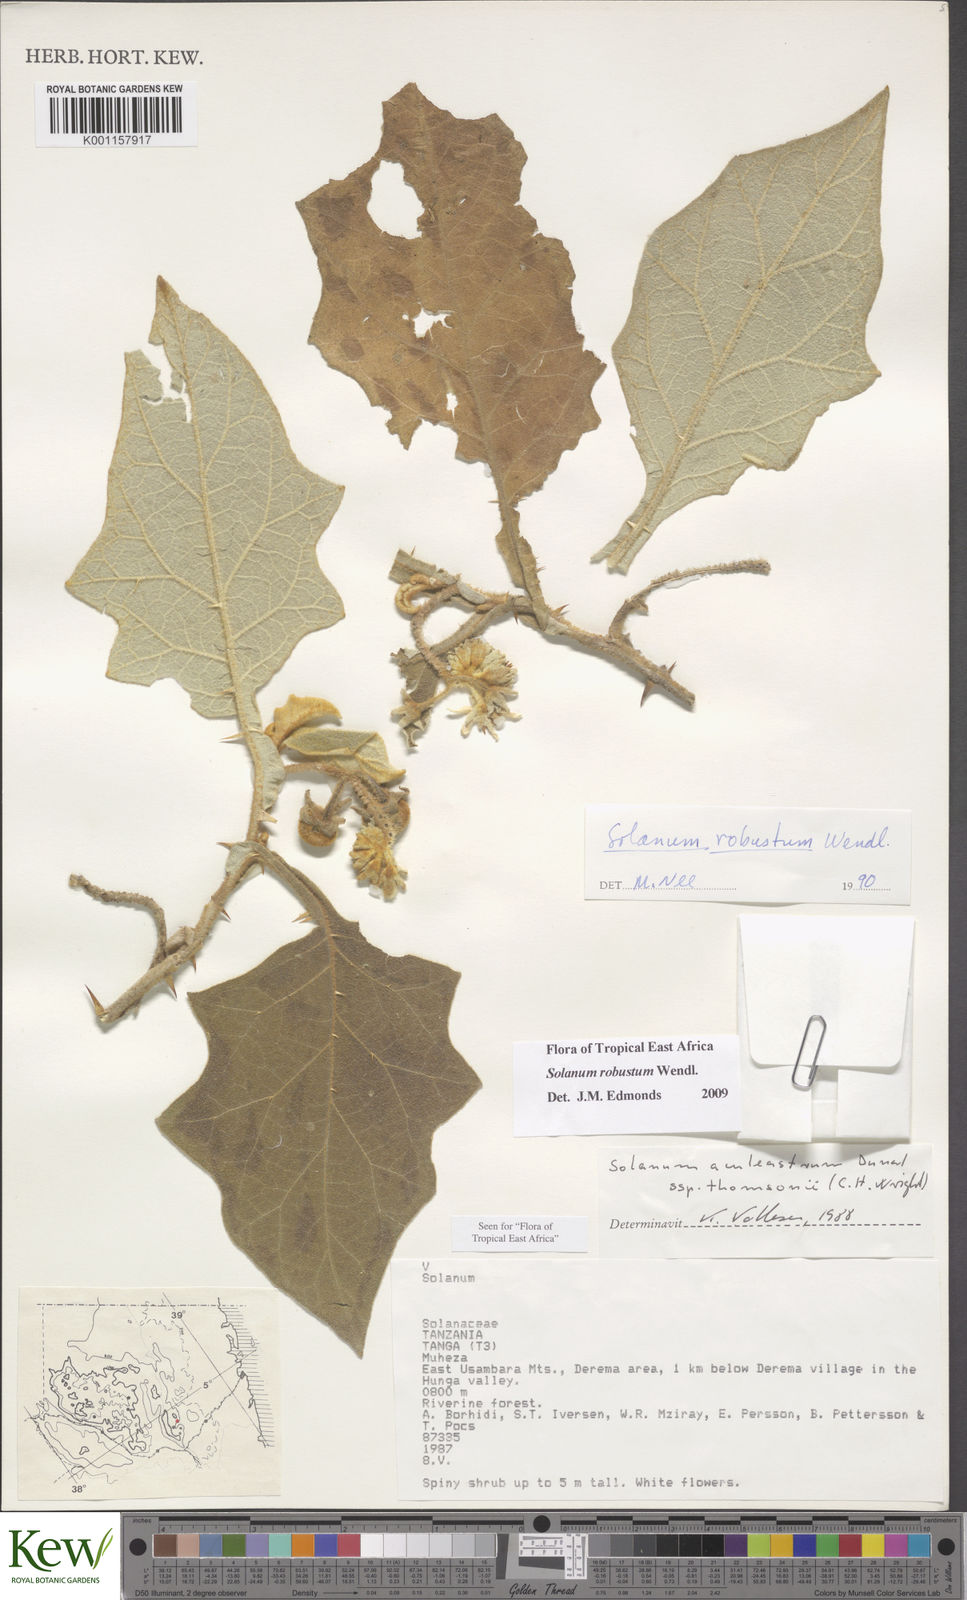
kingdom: Plantae
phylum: Tracheophyta
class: Magnoliopsida
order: Solanales
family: Solanaceae
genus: Solanum
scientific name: Solanum robustum
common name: Shrubby nightshade
